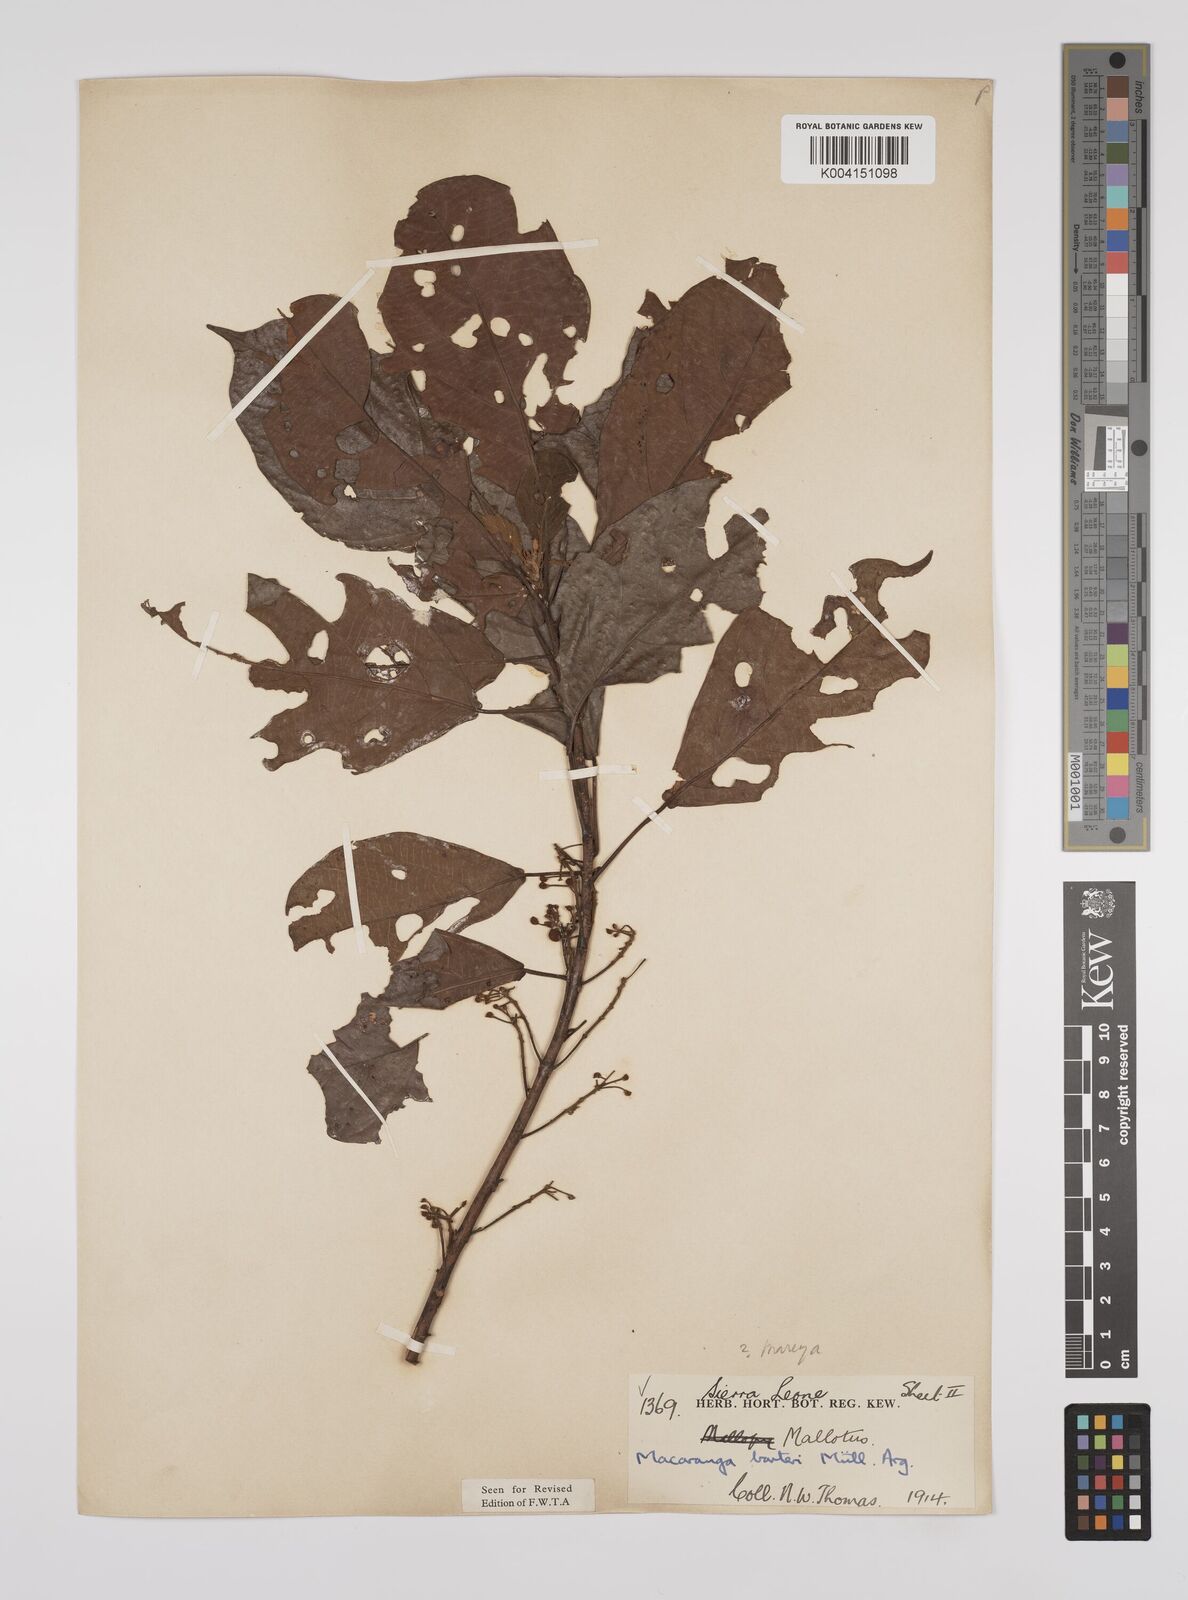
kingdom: Plantae
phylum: Tracheophyta
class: Magnoliopsida
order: Malpighiales
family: Euphorbiaceae
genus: Macaranga
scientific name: Macaranga barteri
